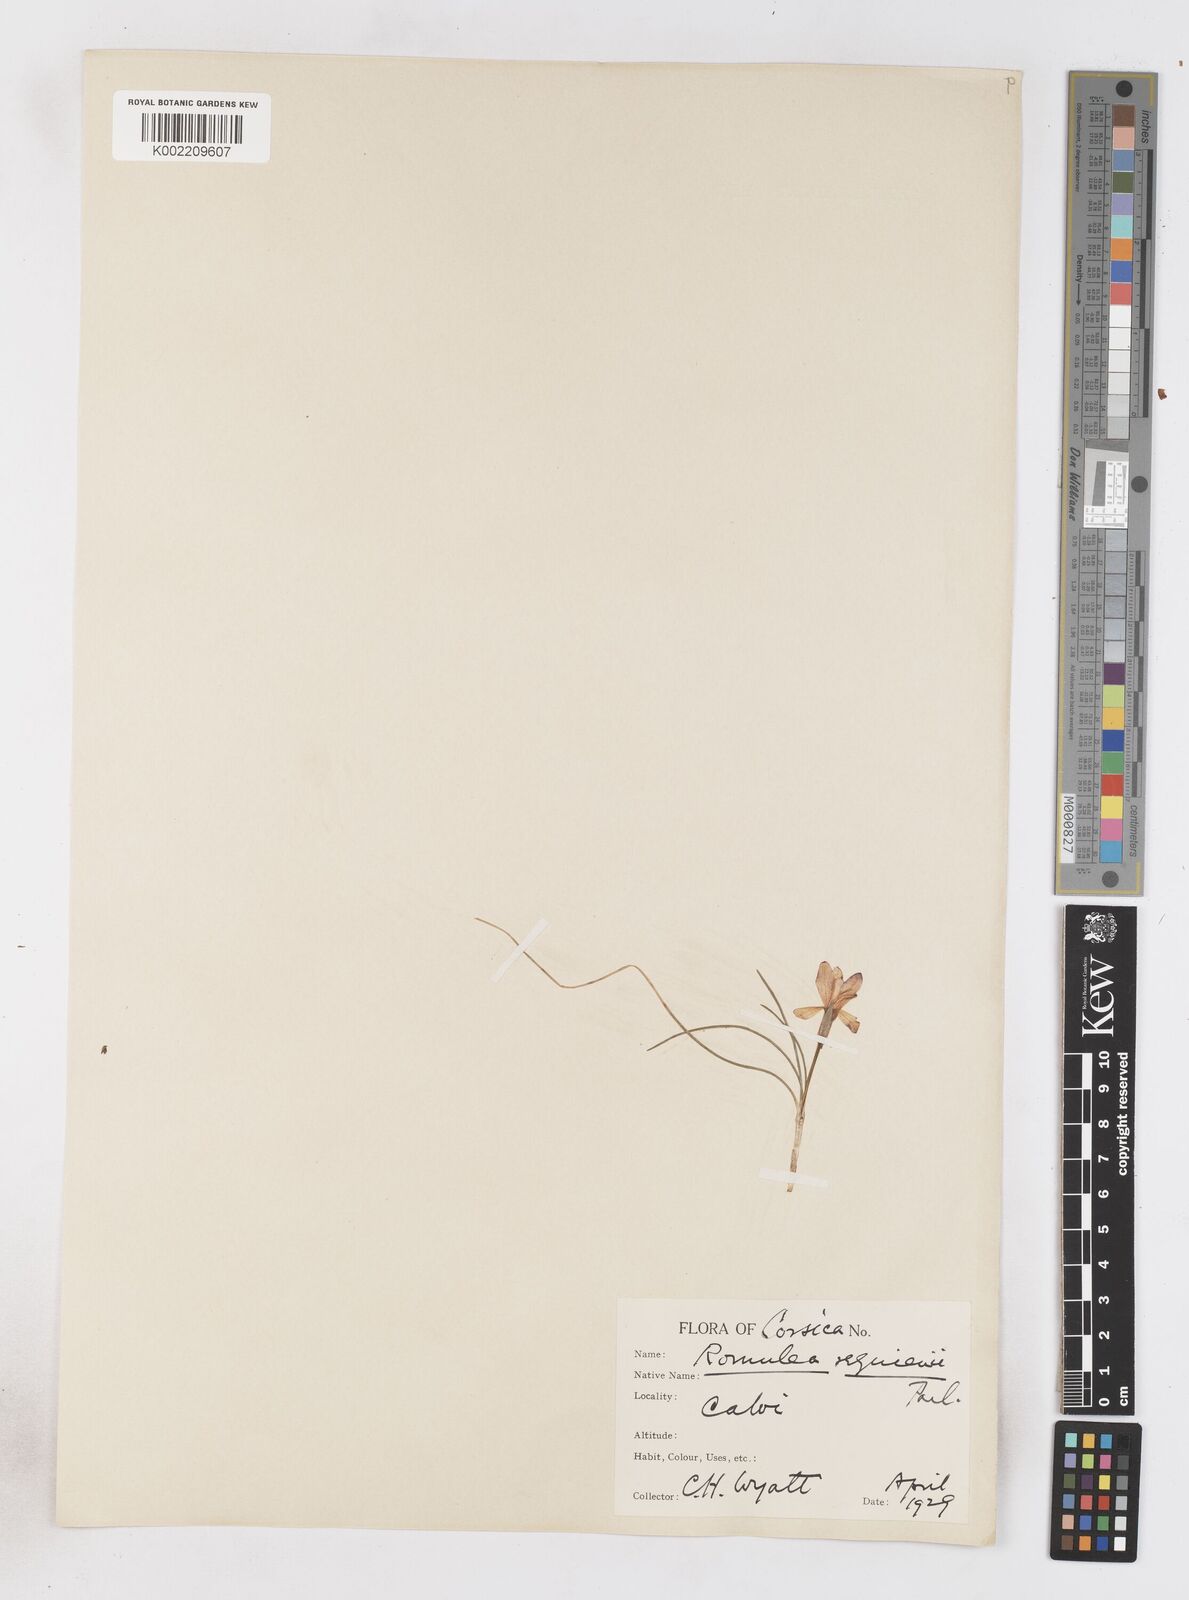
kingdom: Plantae
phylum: Tracheophyta
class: Liliopsida
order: Asparagales
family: Iridaceae
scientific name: Iridaceae
